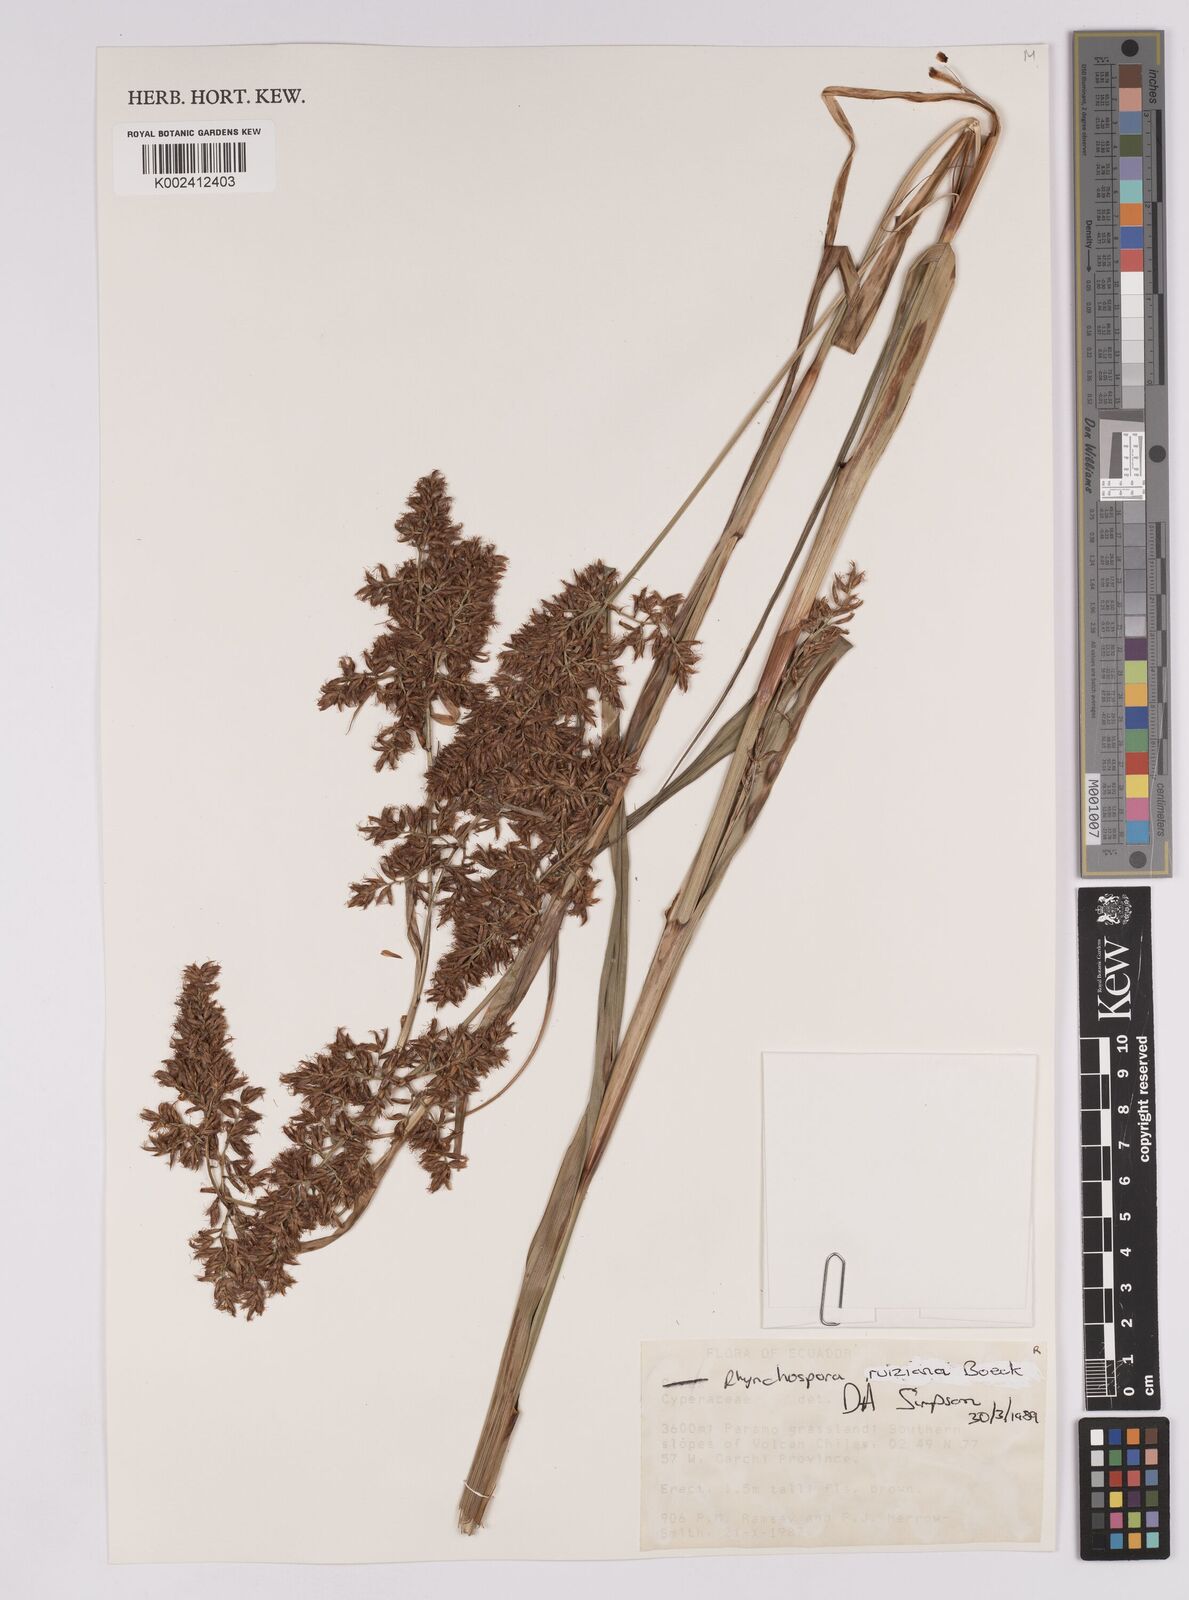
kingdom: Plantae
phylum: Tracheophyta
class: Liliopsida
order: Poales
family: Cyperaceae
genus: Rhynchospora
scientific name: Rhynchospora ruiziana
